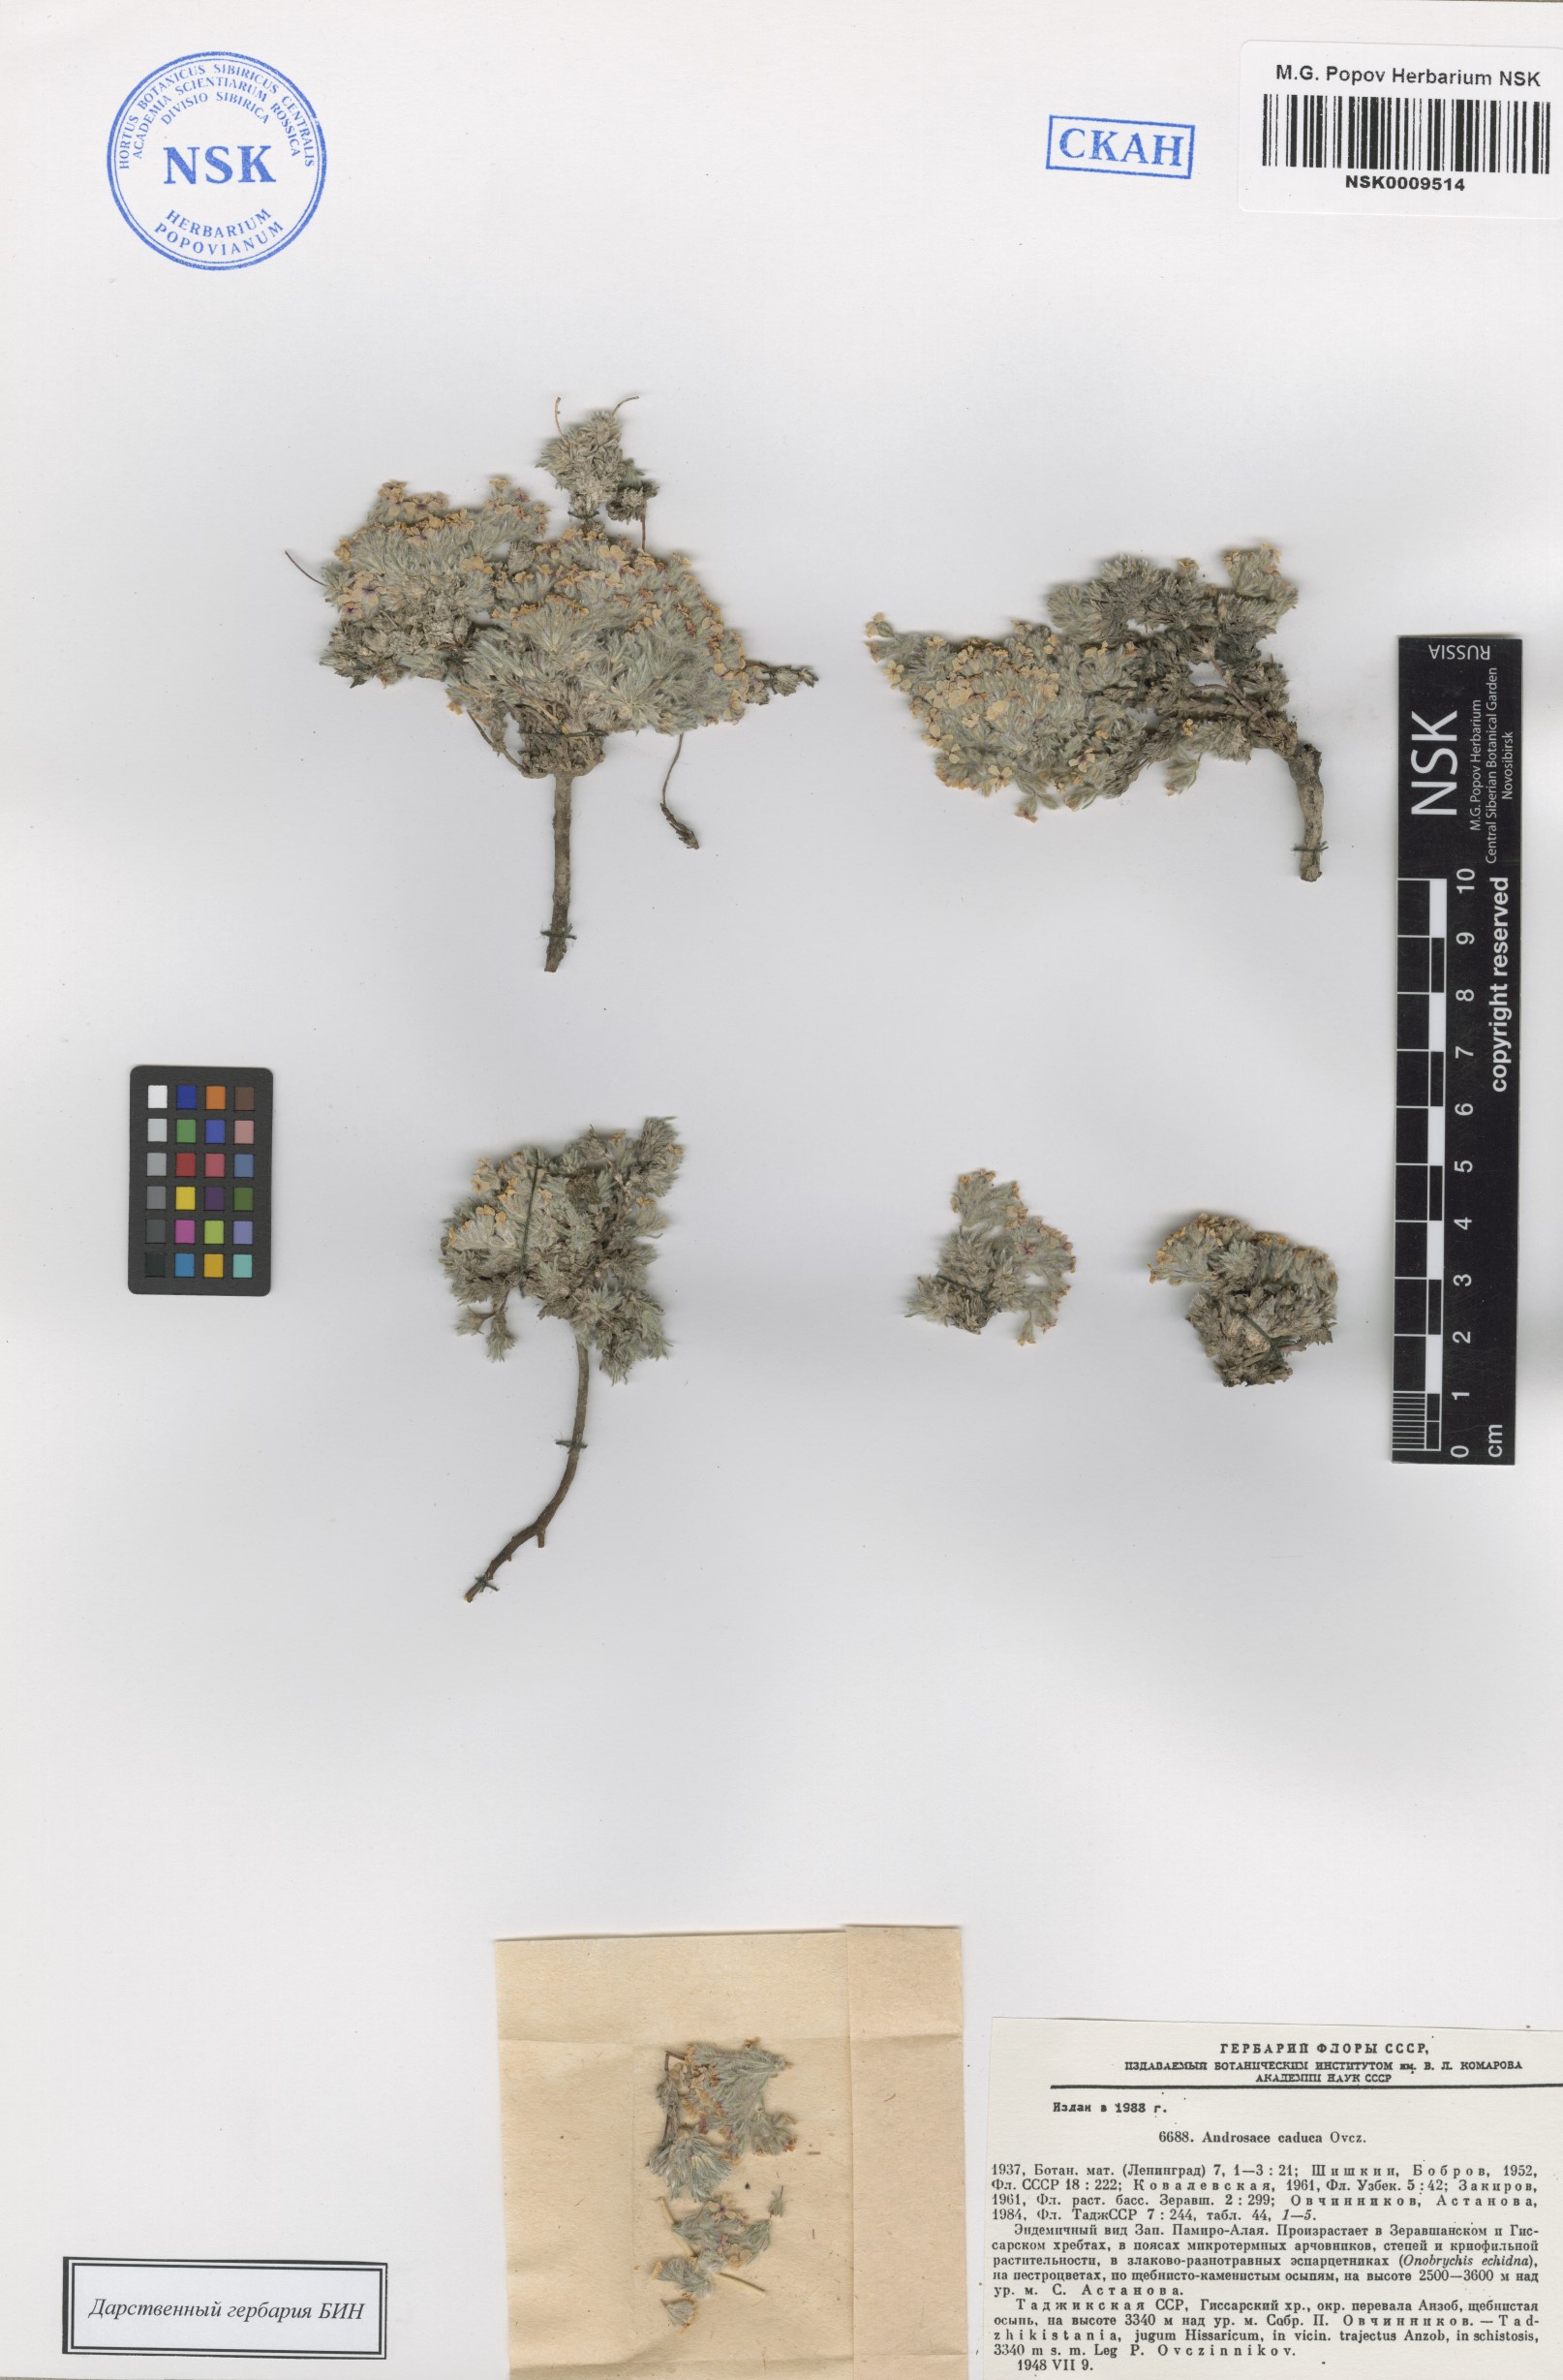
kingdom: Plantae
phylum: Tracheophyta
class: Magnoliopsida
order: Ericales
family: Primulaceae
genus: Androsace
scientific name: Androsace caduca
